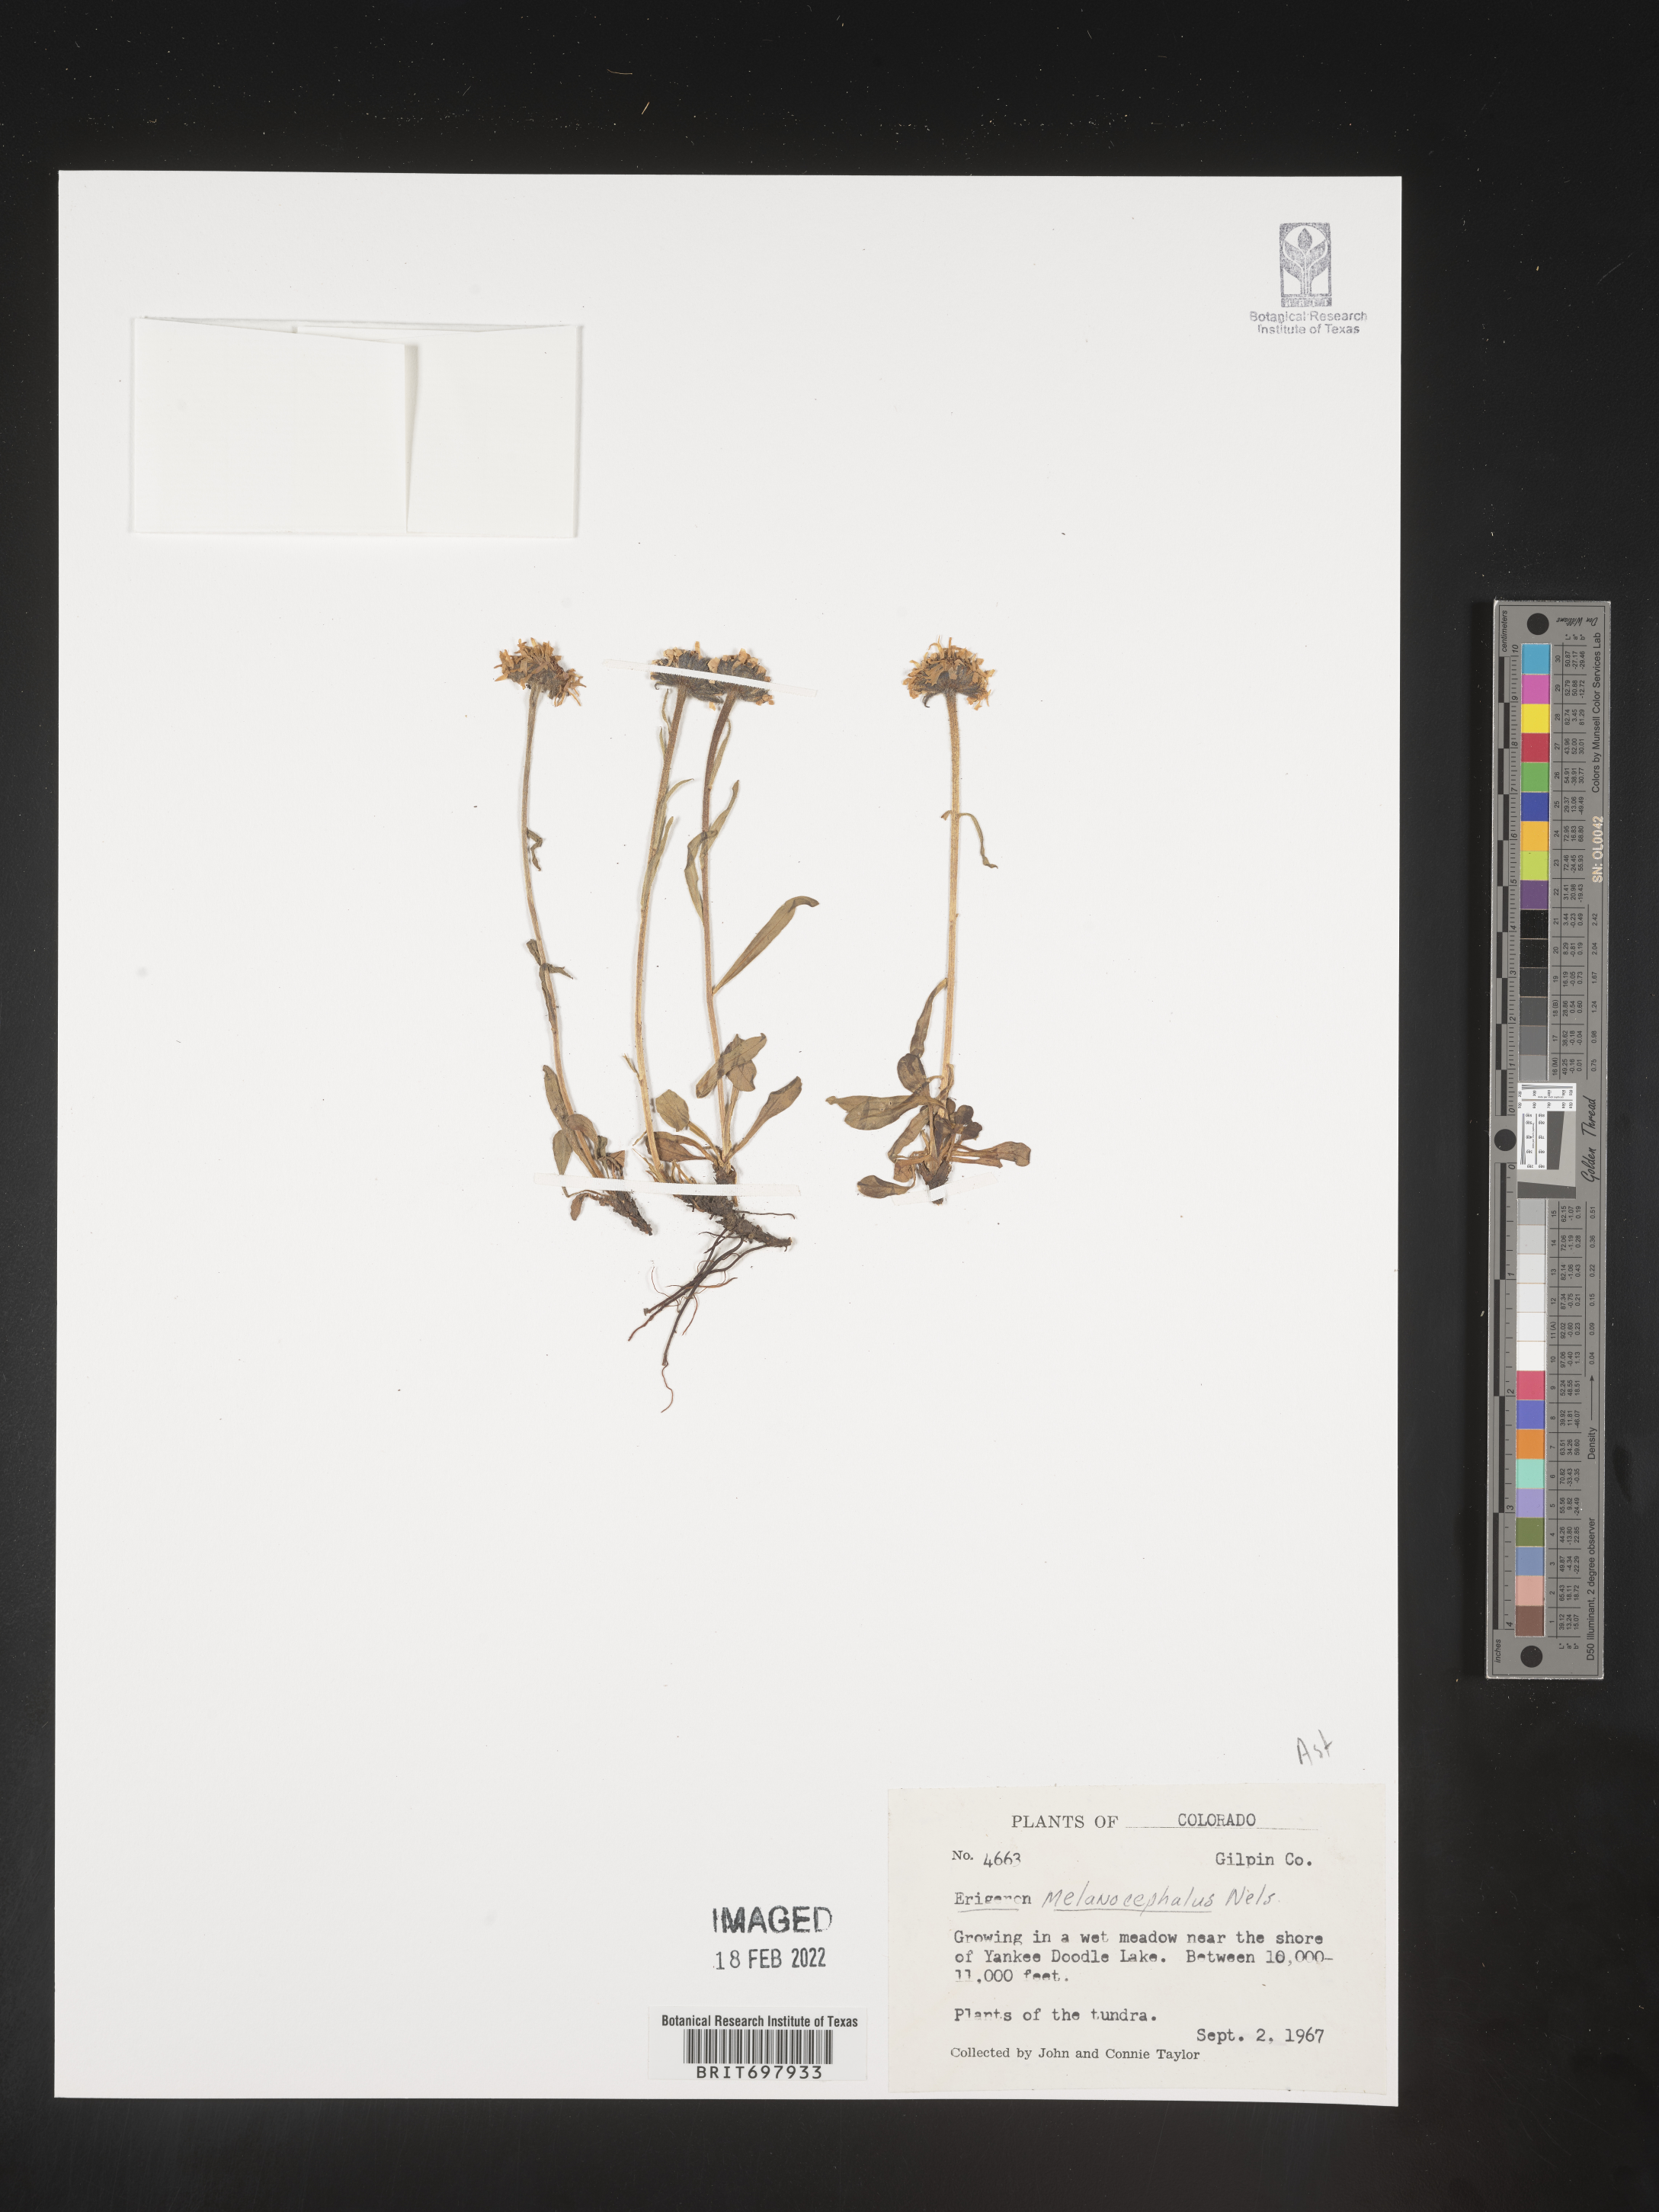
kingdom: Plantae
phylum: Tracheophyta
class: Magnoliopsida
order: Asterales
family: Asteraceae
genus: Erigeron
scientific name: Erigeron melanocephalus
